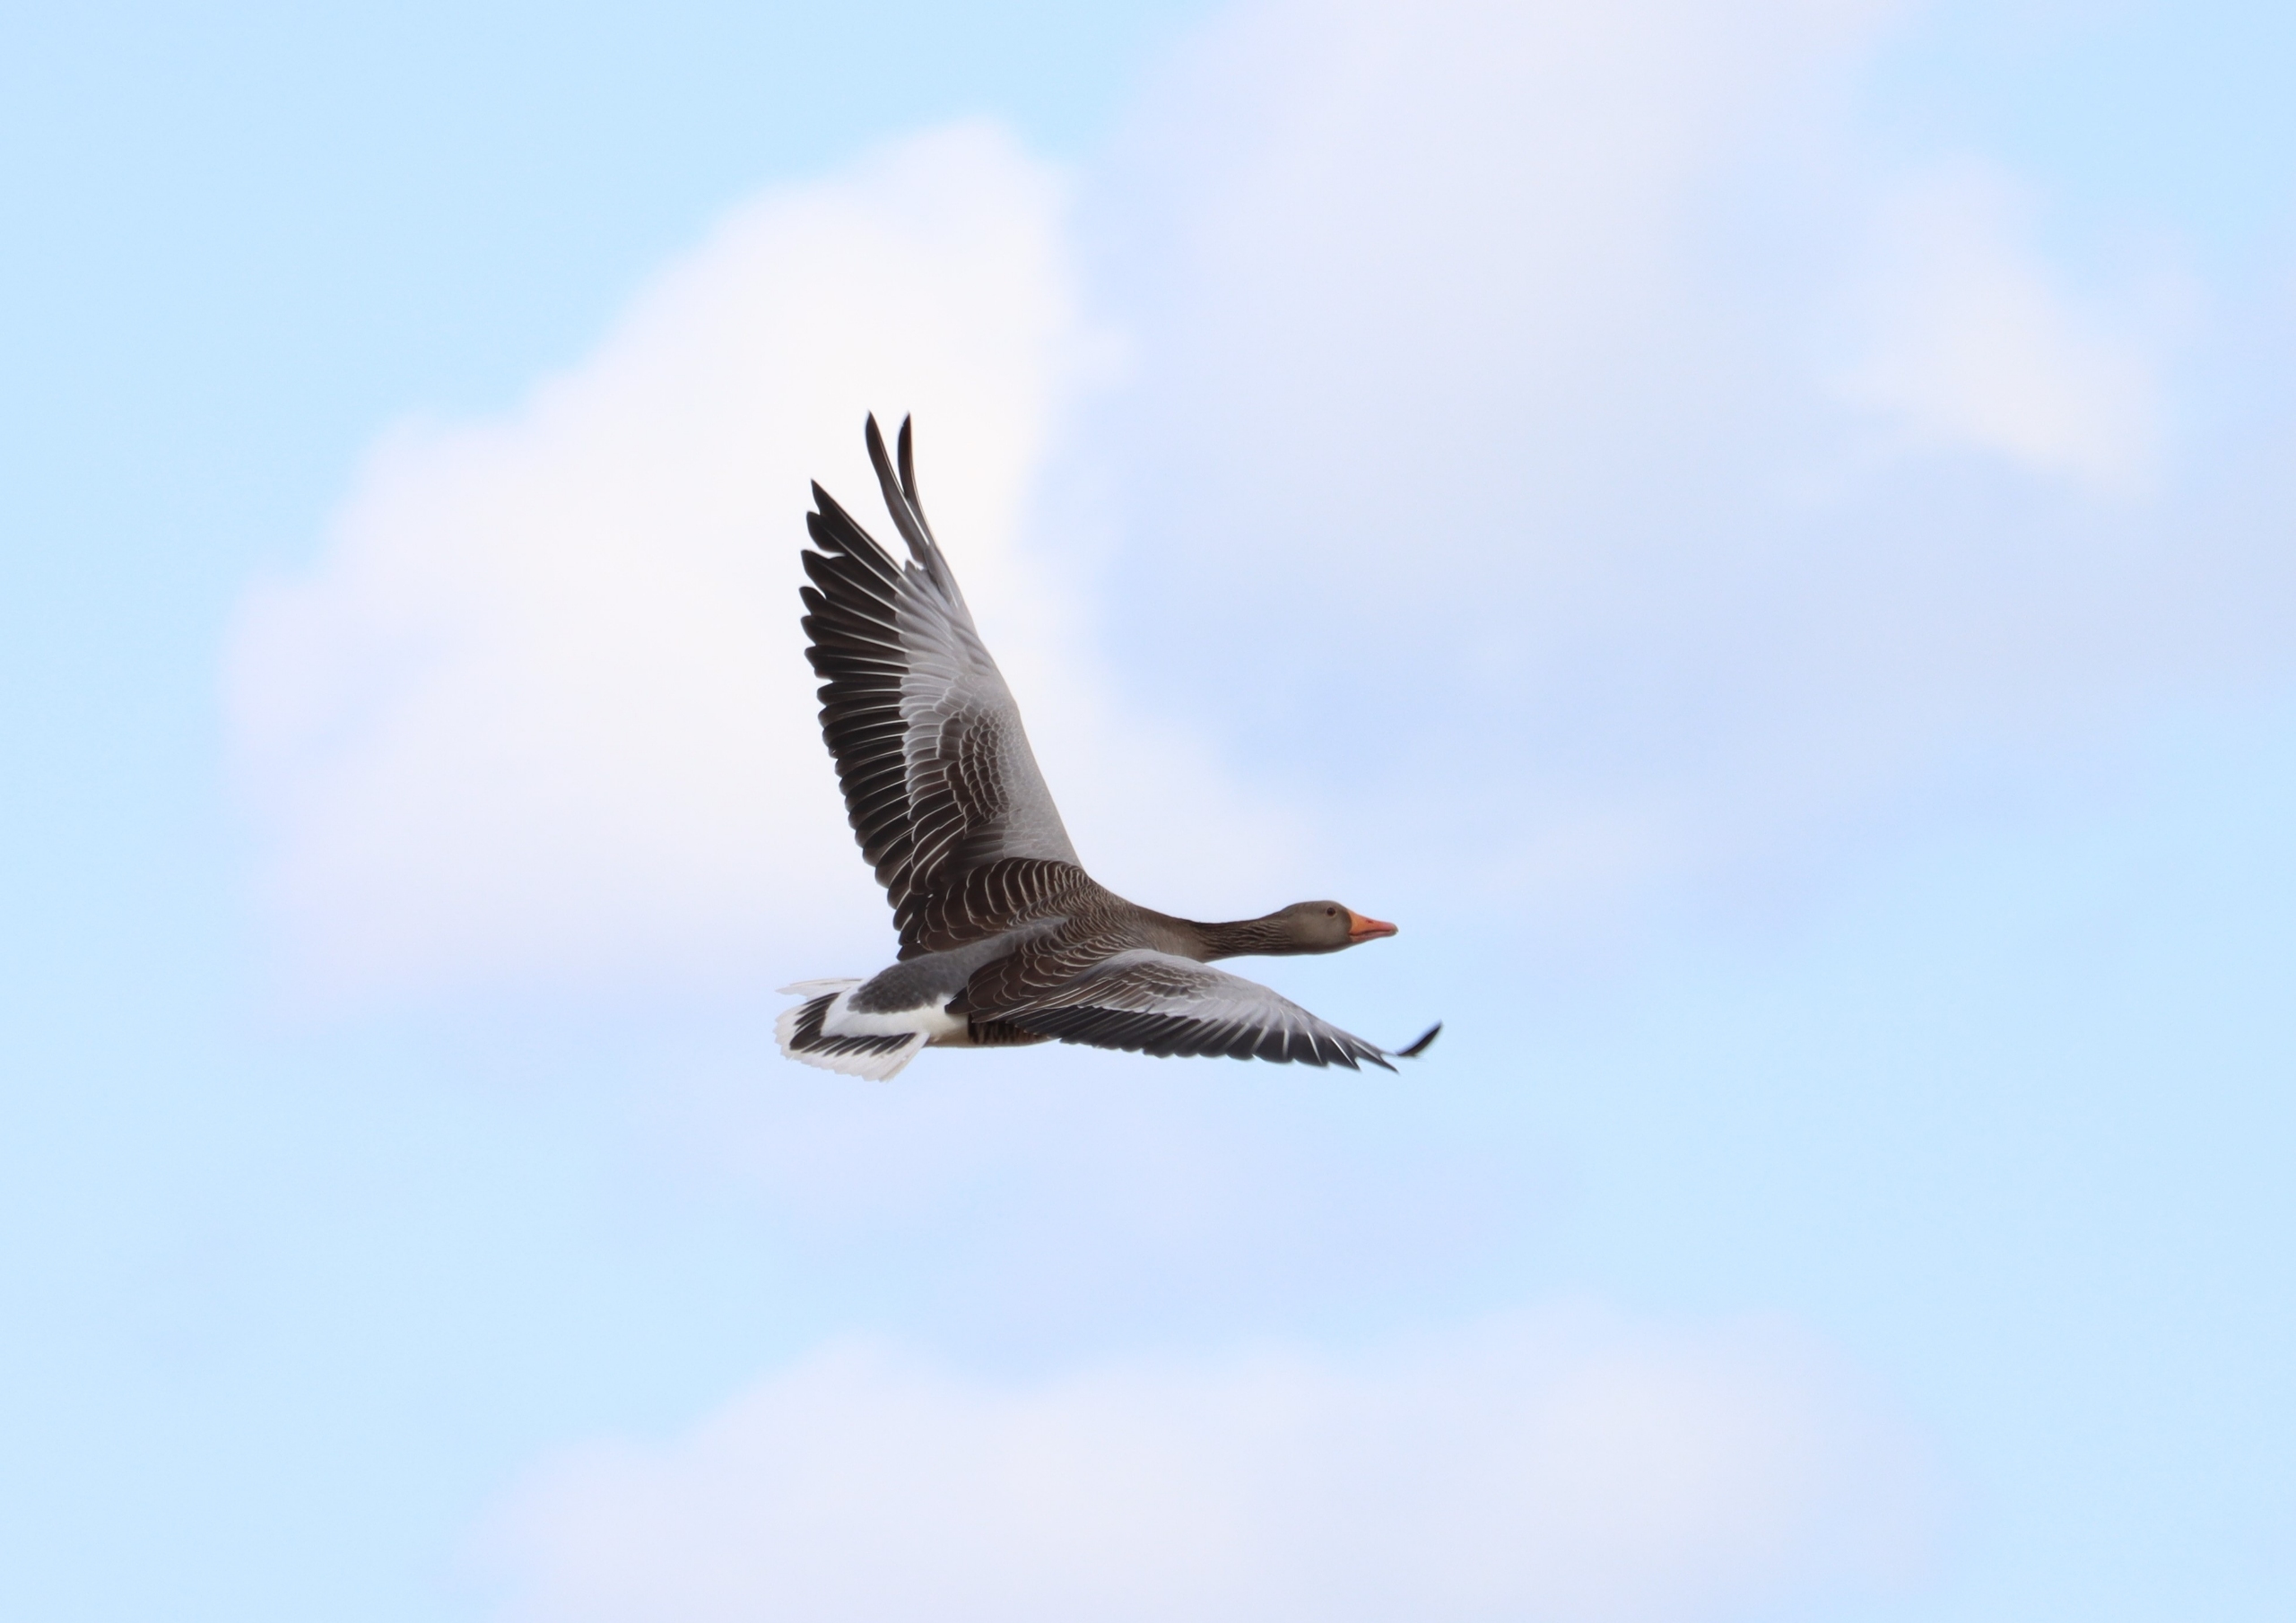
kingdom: Animalia
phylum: Chordata
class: Aves
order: Anseriformes
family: Anatidae
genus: Anser
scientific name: Anser anser
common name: Grågås
